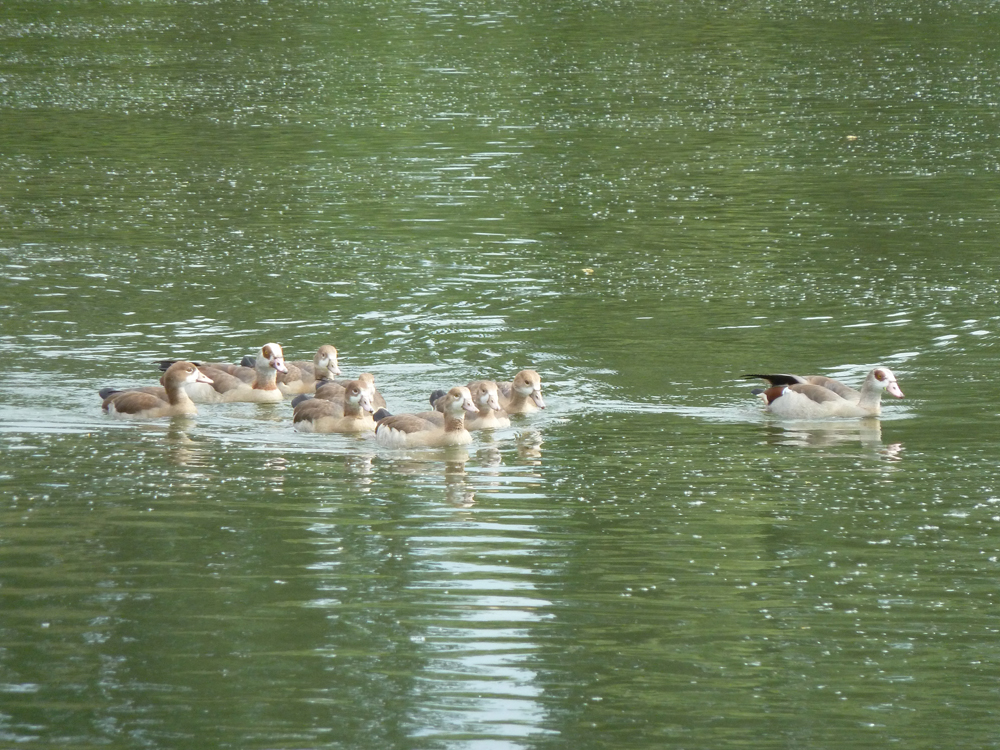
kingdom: Animalia
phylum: Chordata
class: Aves
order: Anseriformes
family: Anatidae
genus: Alopochen
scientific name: Alopochen aegyptiaca
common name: Egyptian goose
